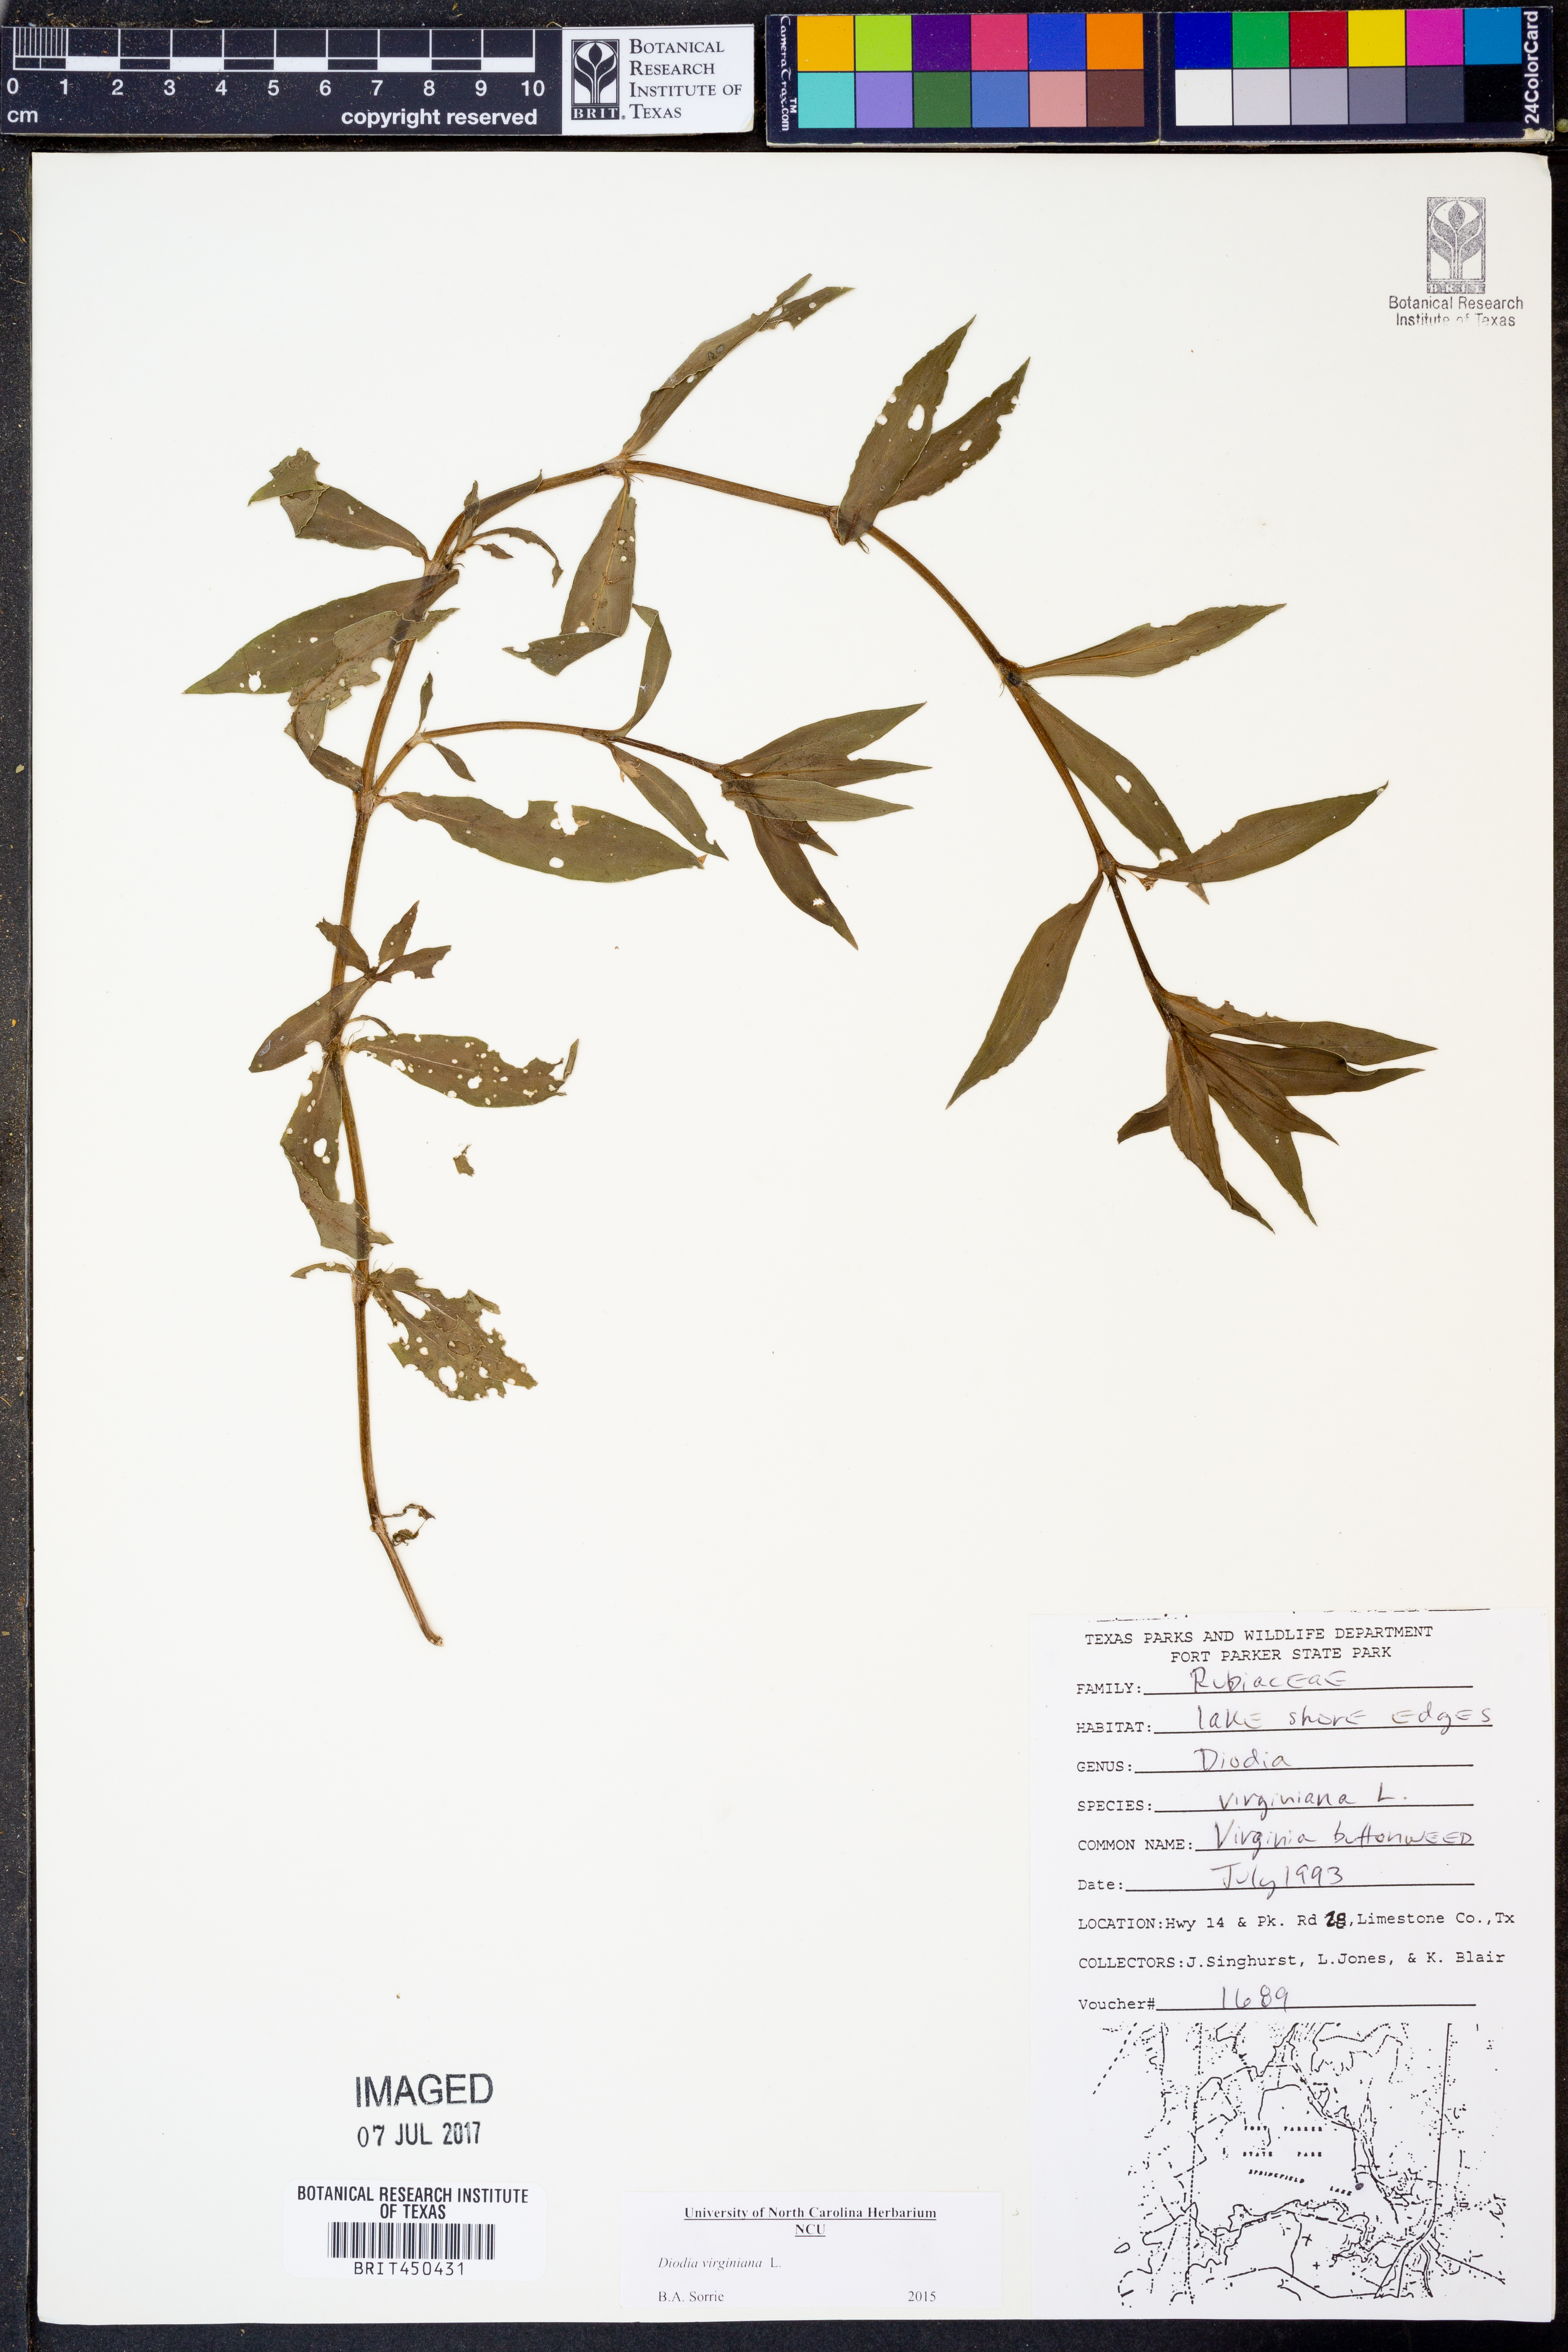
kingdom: Plantae
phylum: Tracheophyta
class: Magnoliopsida
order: Gentianales
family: Rubiaceae
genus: Diodia
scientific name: Diodia virginiana
